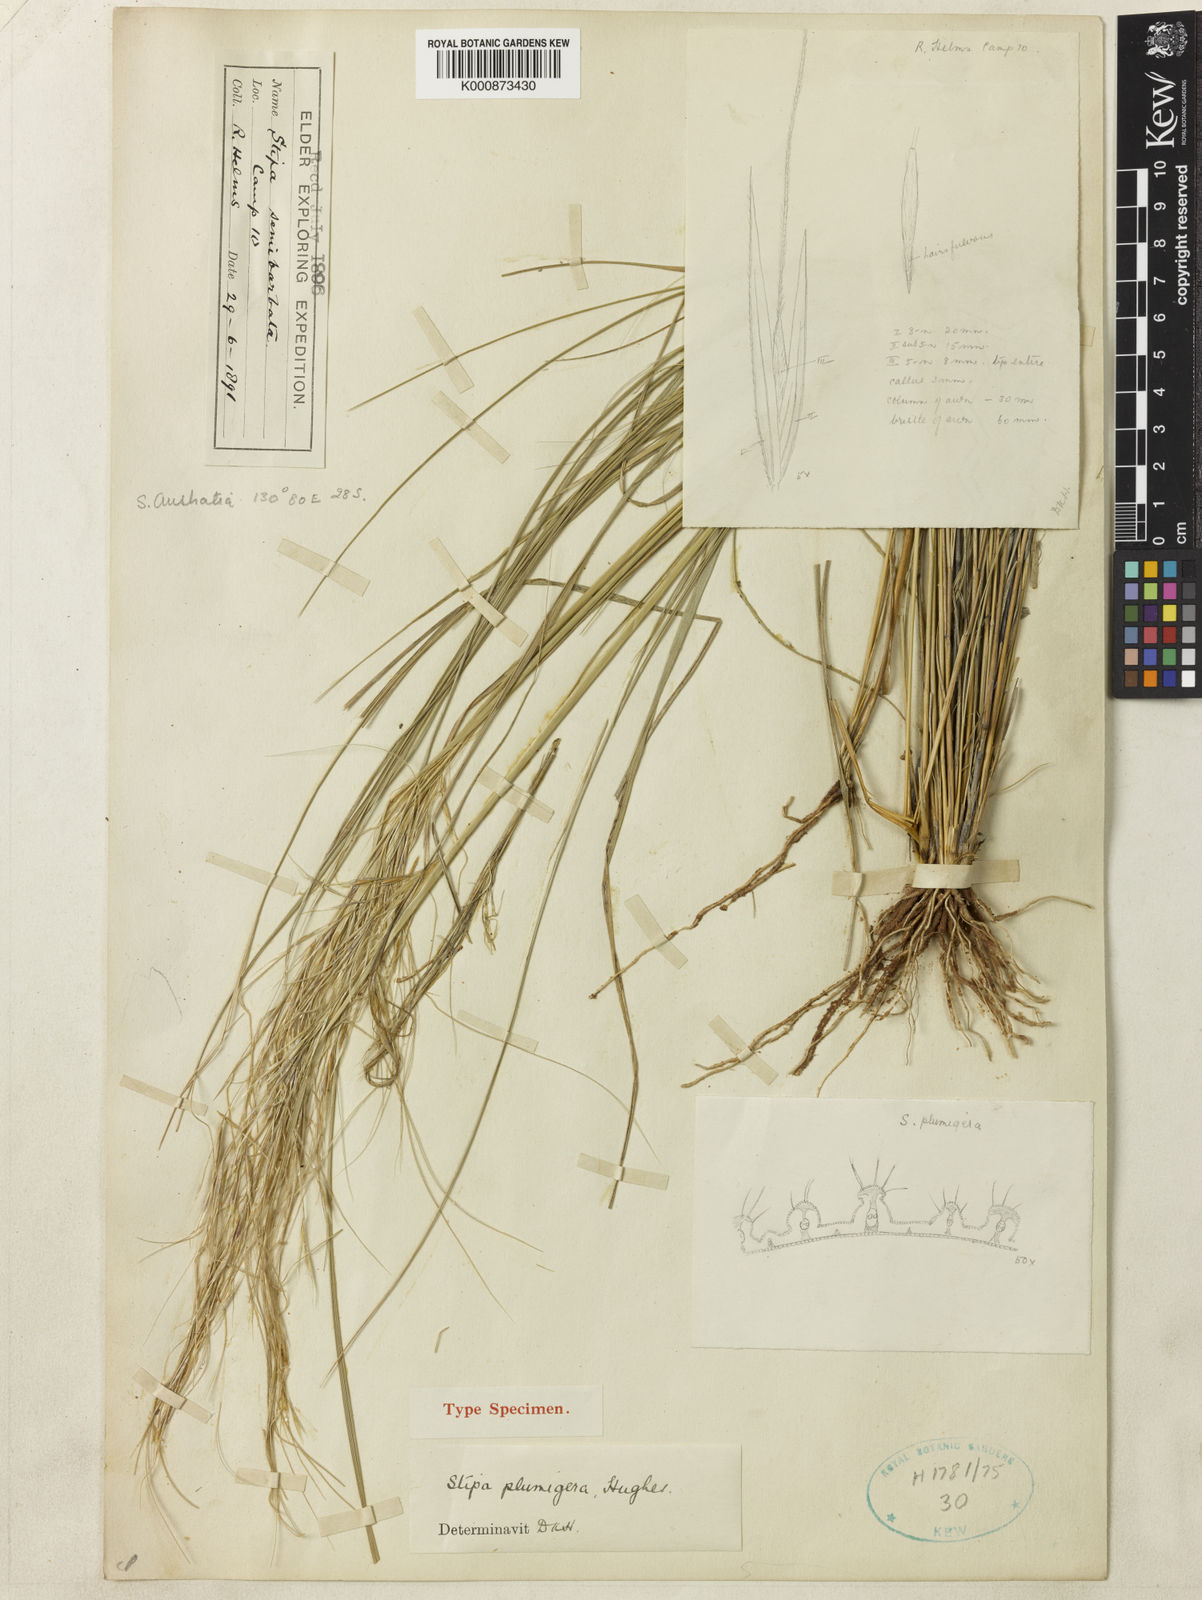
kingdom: Plantae
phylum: Tracheophyta
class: Liliopsida
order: Poales
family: Poaceae
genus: Austrostipa
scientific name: Austrostipa plumigera
